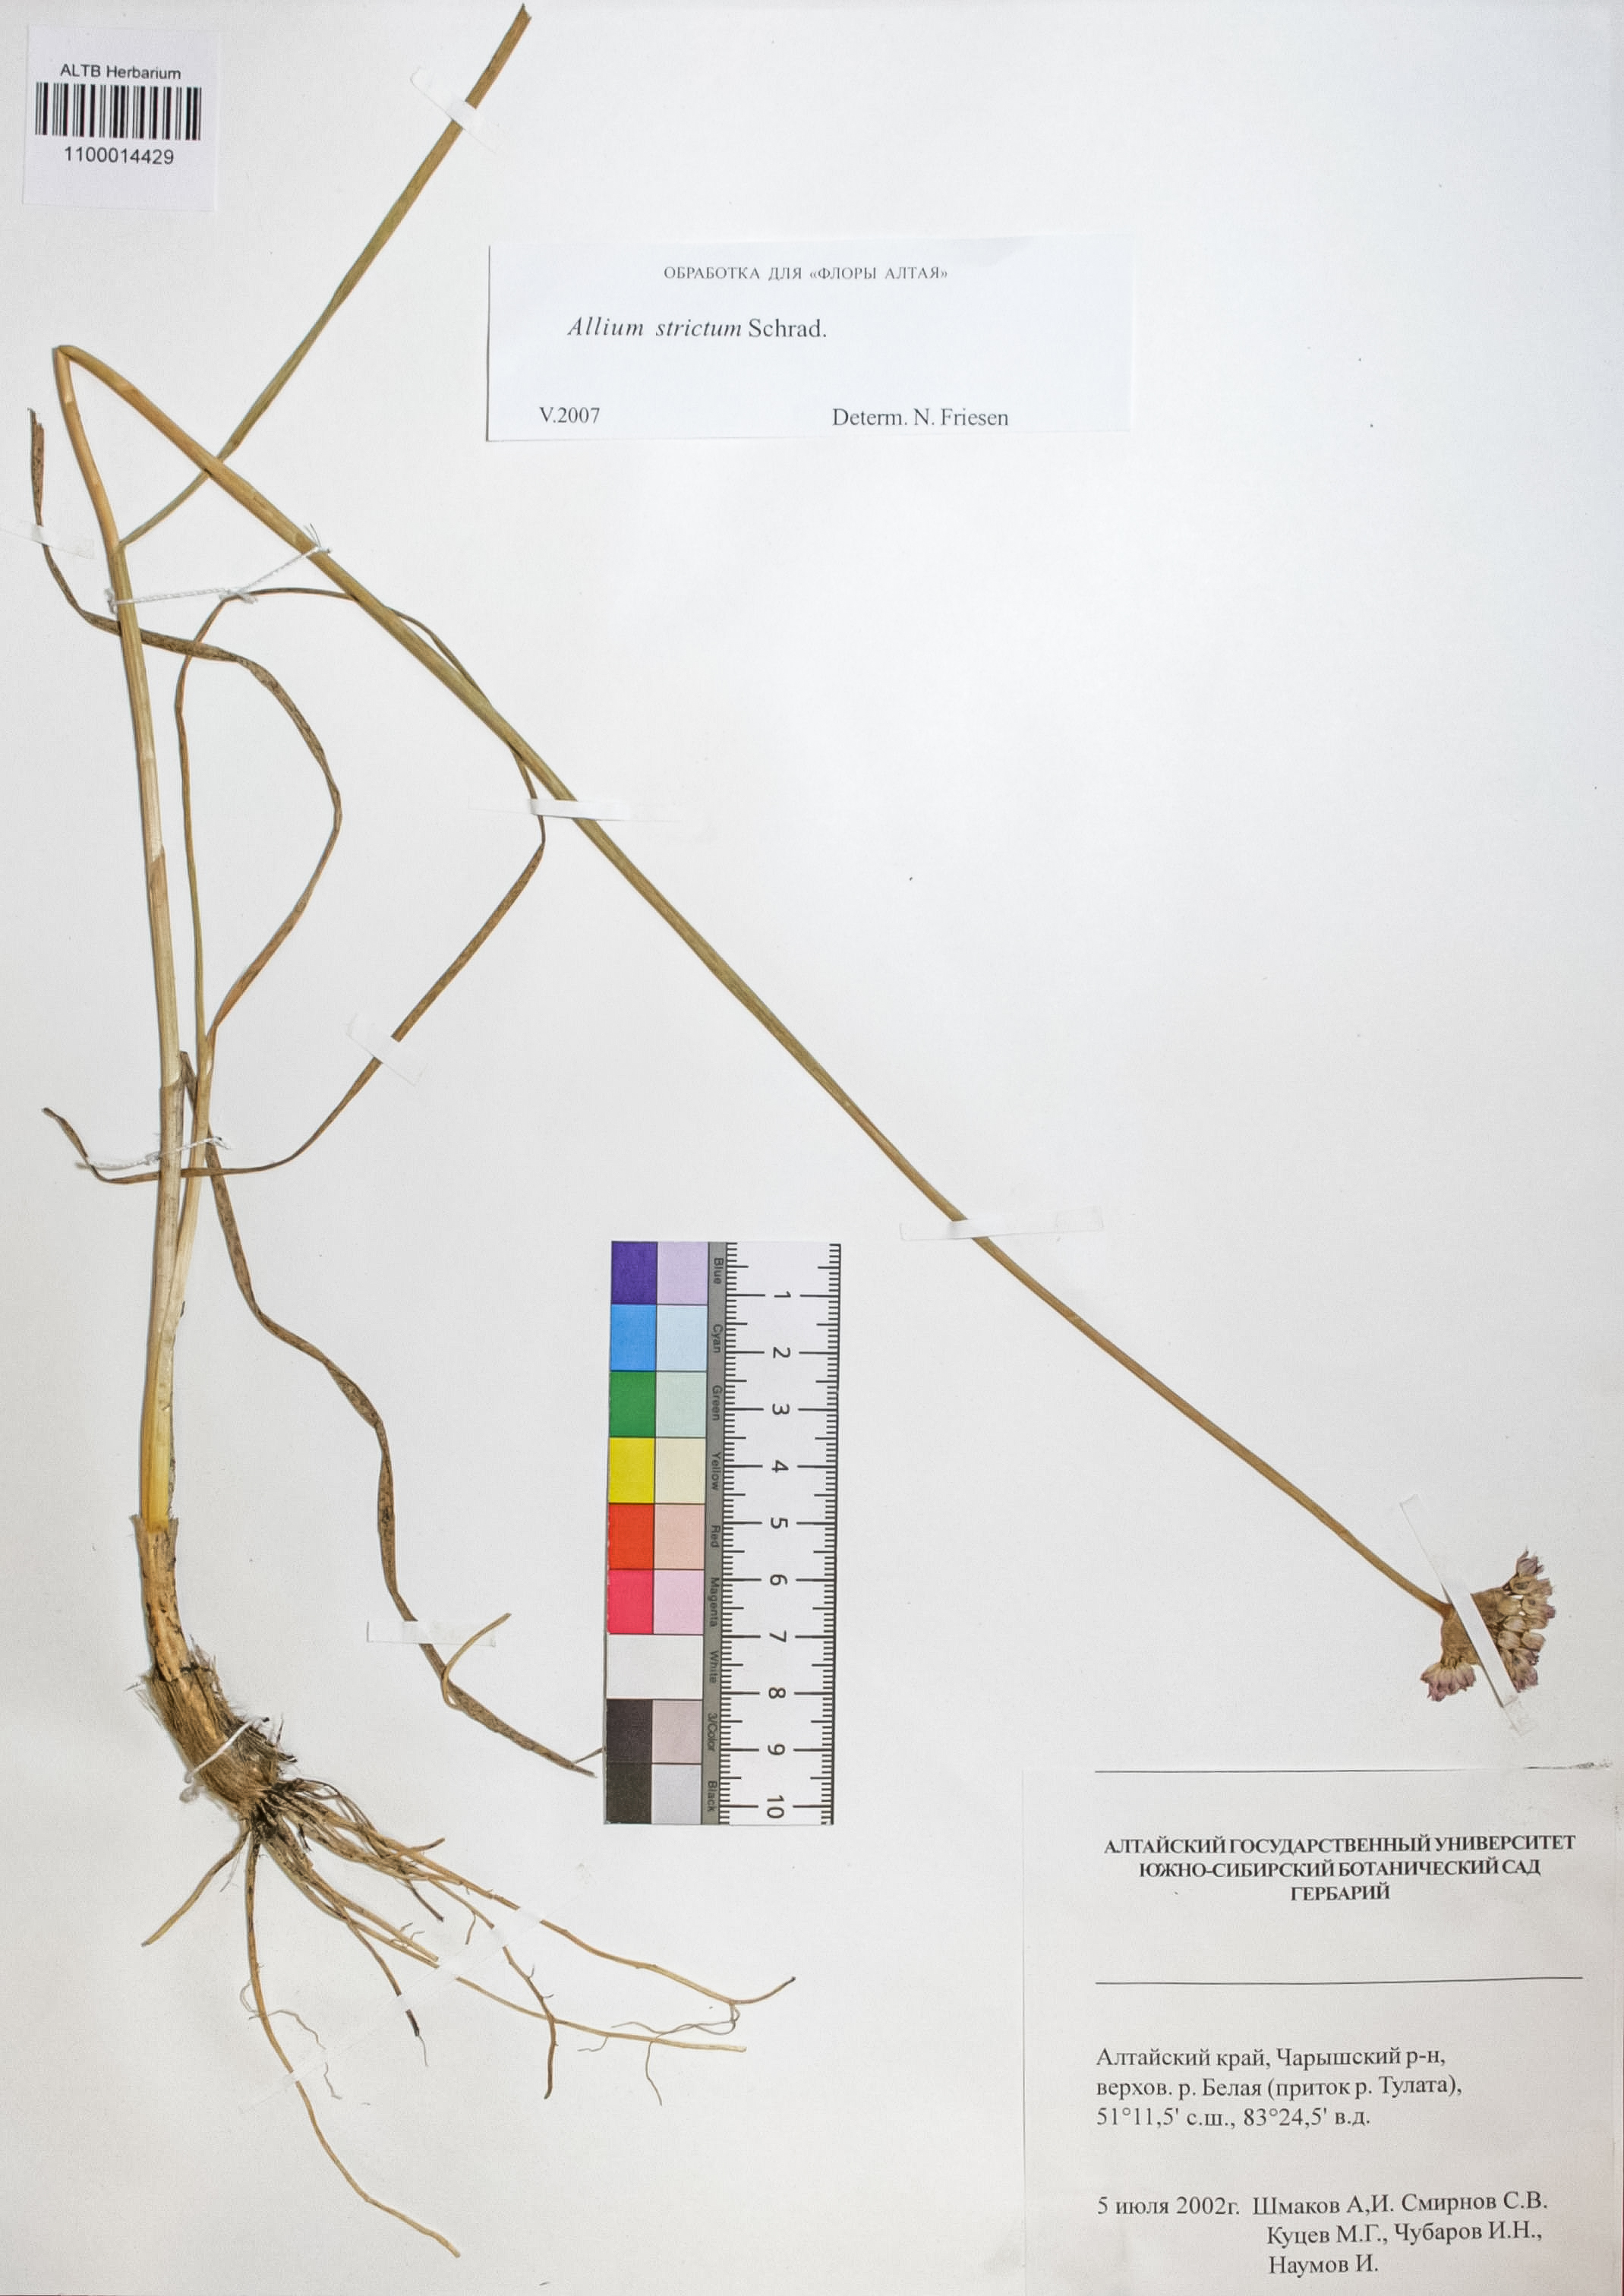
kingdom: Plantae
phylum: Tracheophyta
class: Liliopsida
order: Asparagales
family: Amaryllidaceae
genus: Allium
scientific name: Allium strictum
